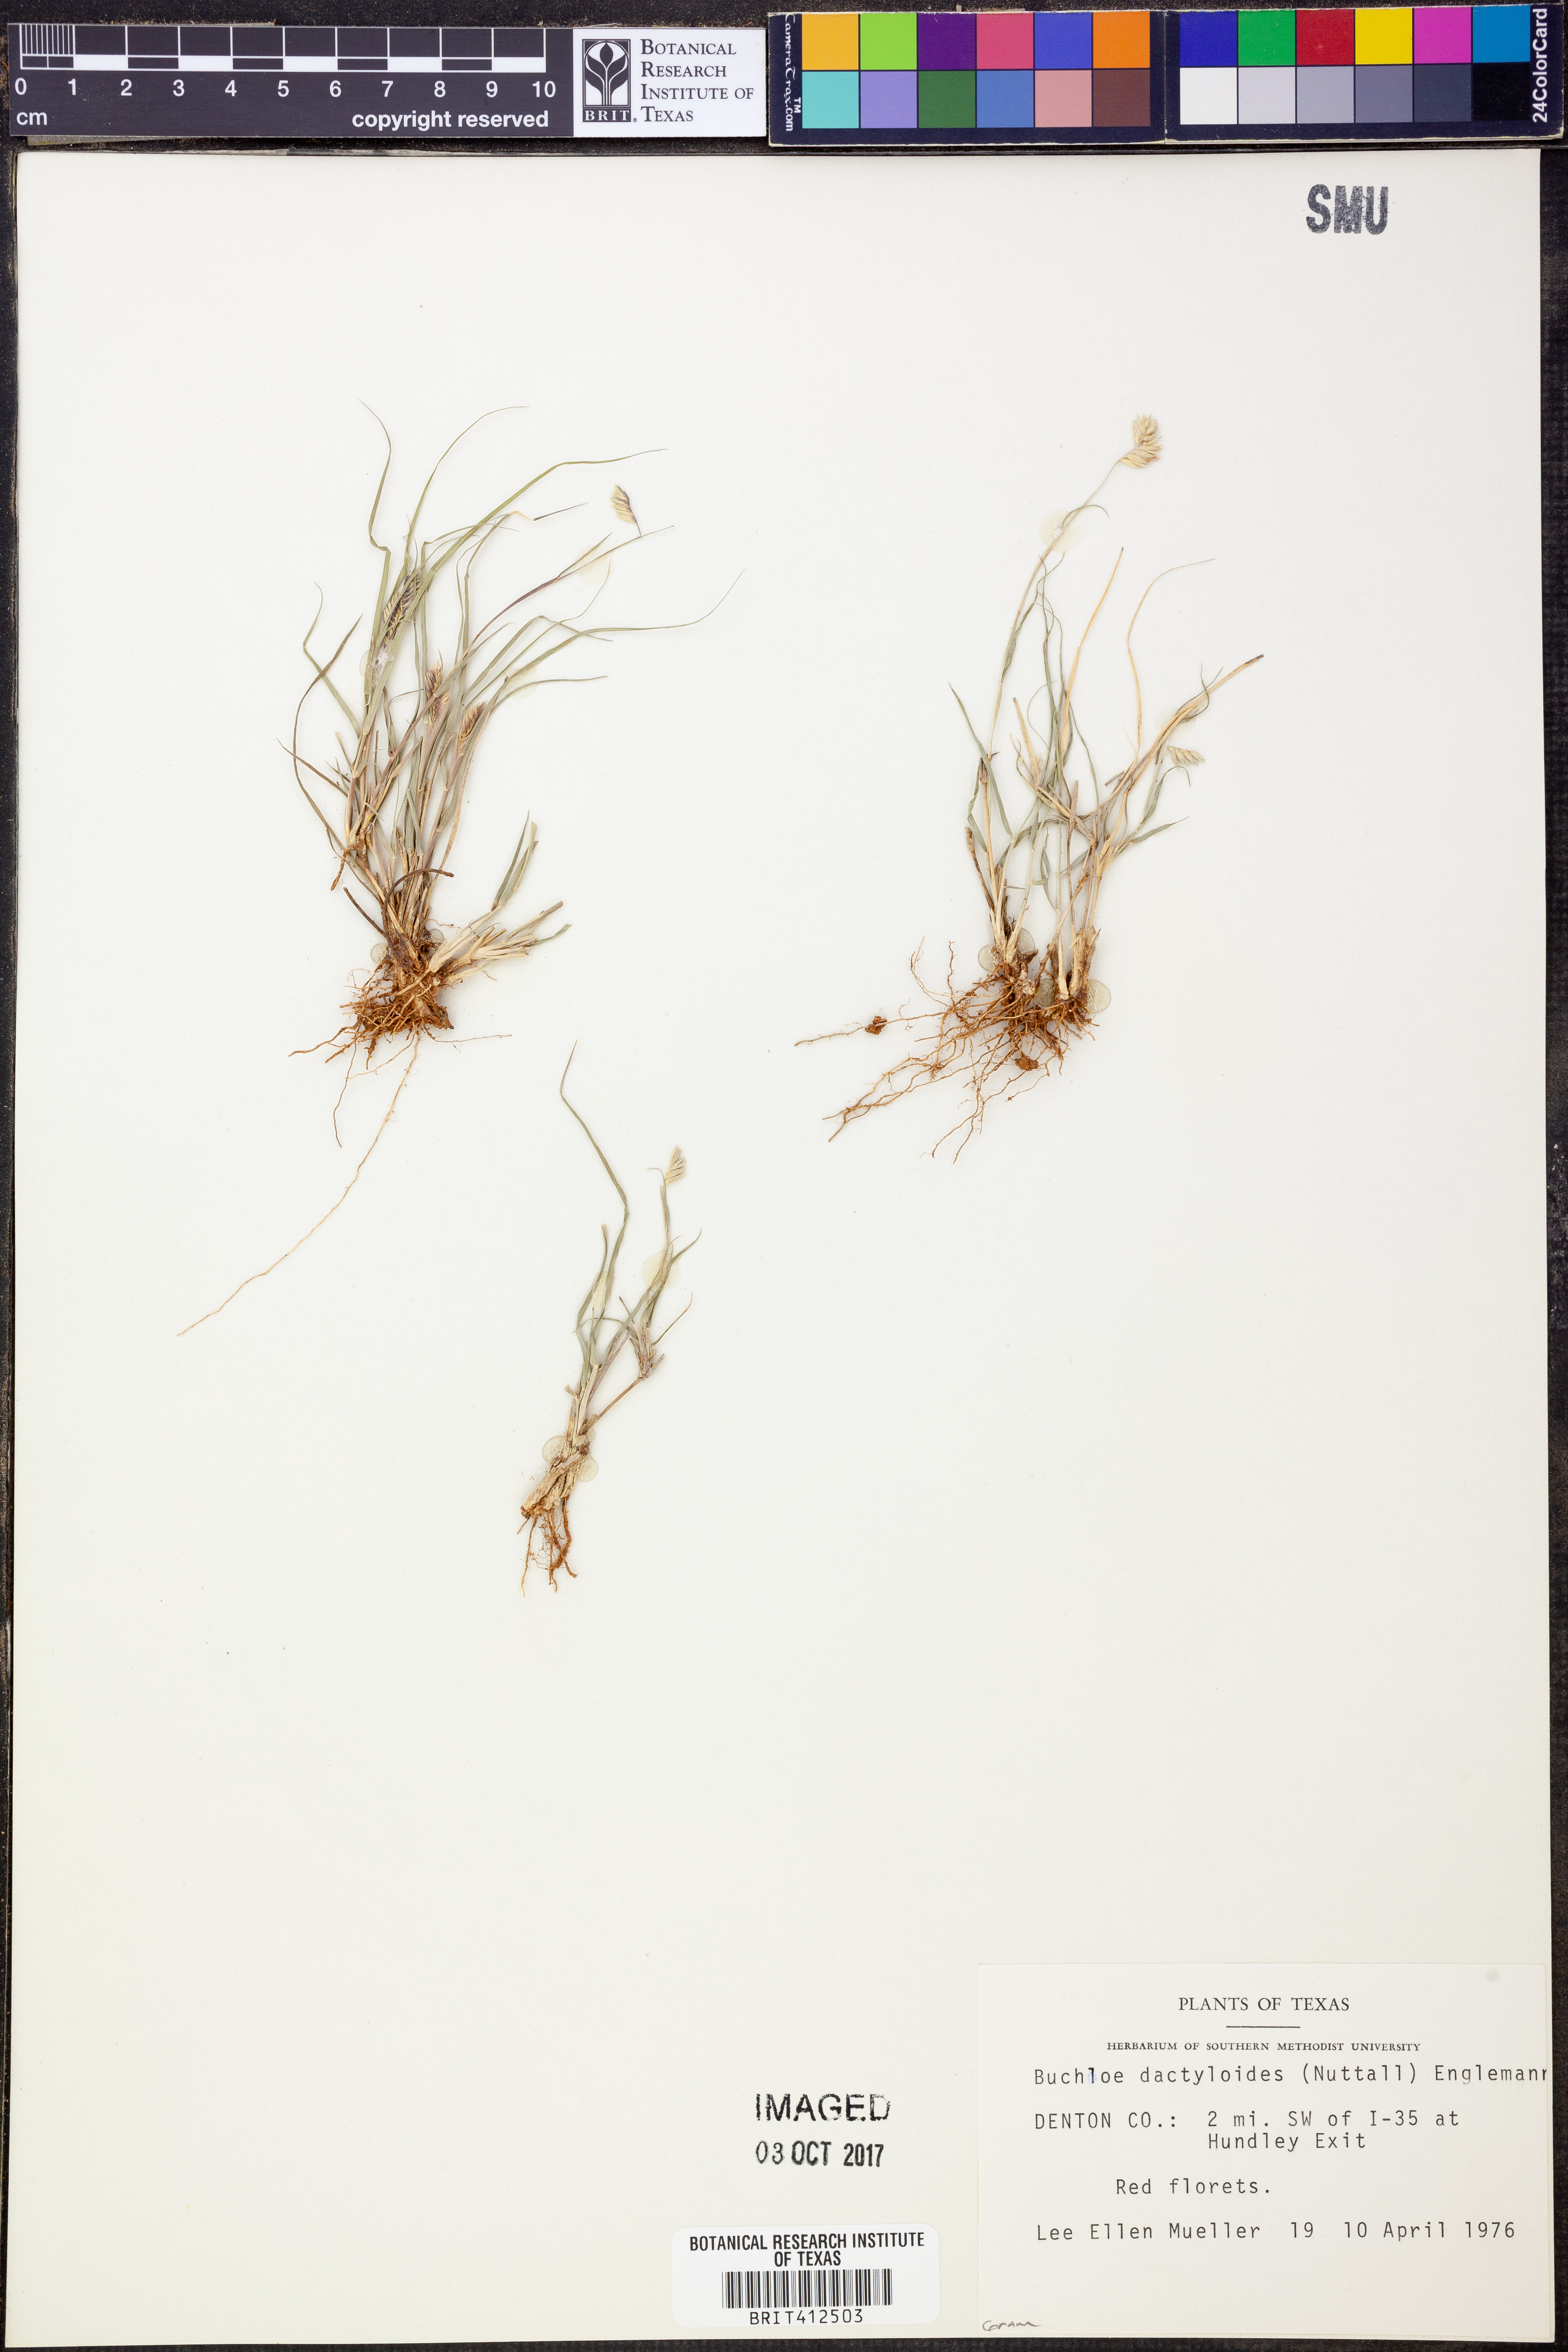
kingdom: Plantae
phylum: Tracheophyta
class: Liliopsida
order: Poales
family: Poaceae
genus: Bouteloua
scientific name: Bouteloua dactyloides
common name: Buffalo grass
